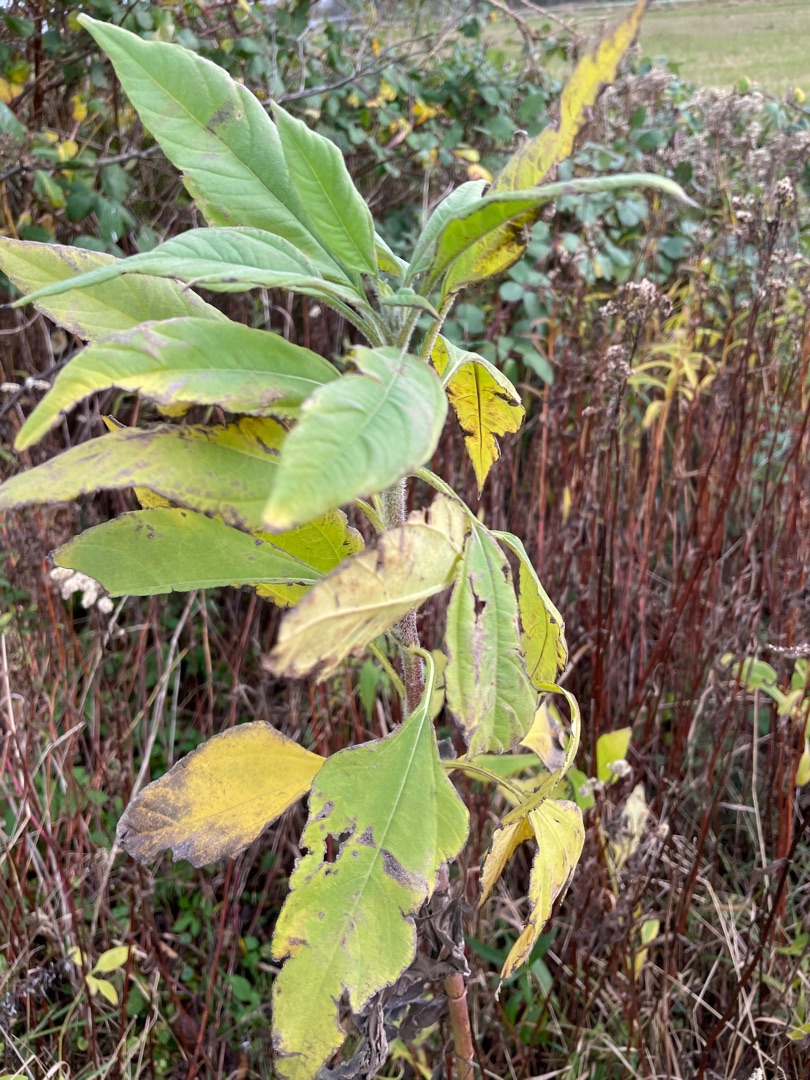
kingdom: Plantae
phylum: Tracheophyta
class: Magnoliopsida
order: Asterales
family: Asteraceae
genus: Helianthus
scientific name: Helianthus tuberosus
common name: Jordskok
